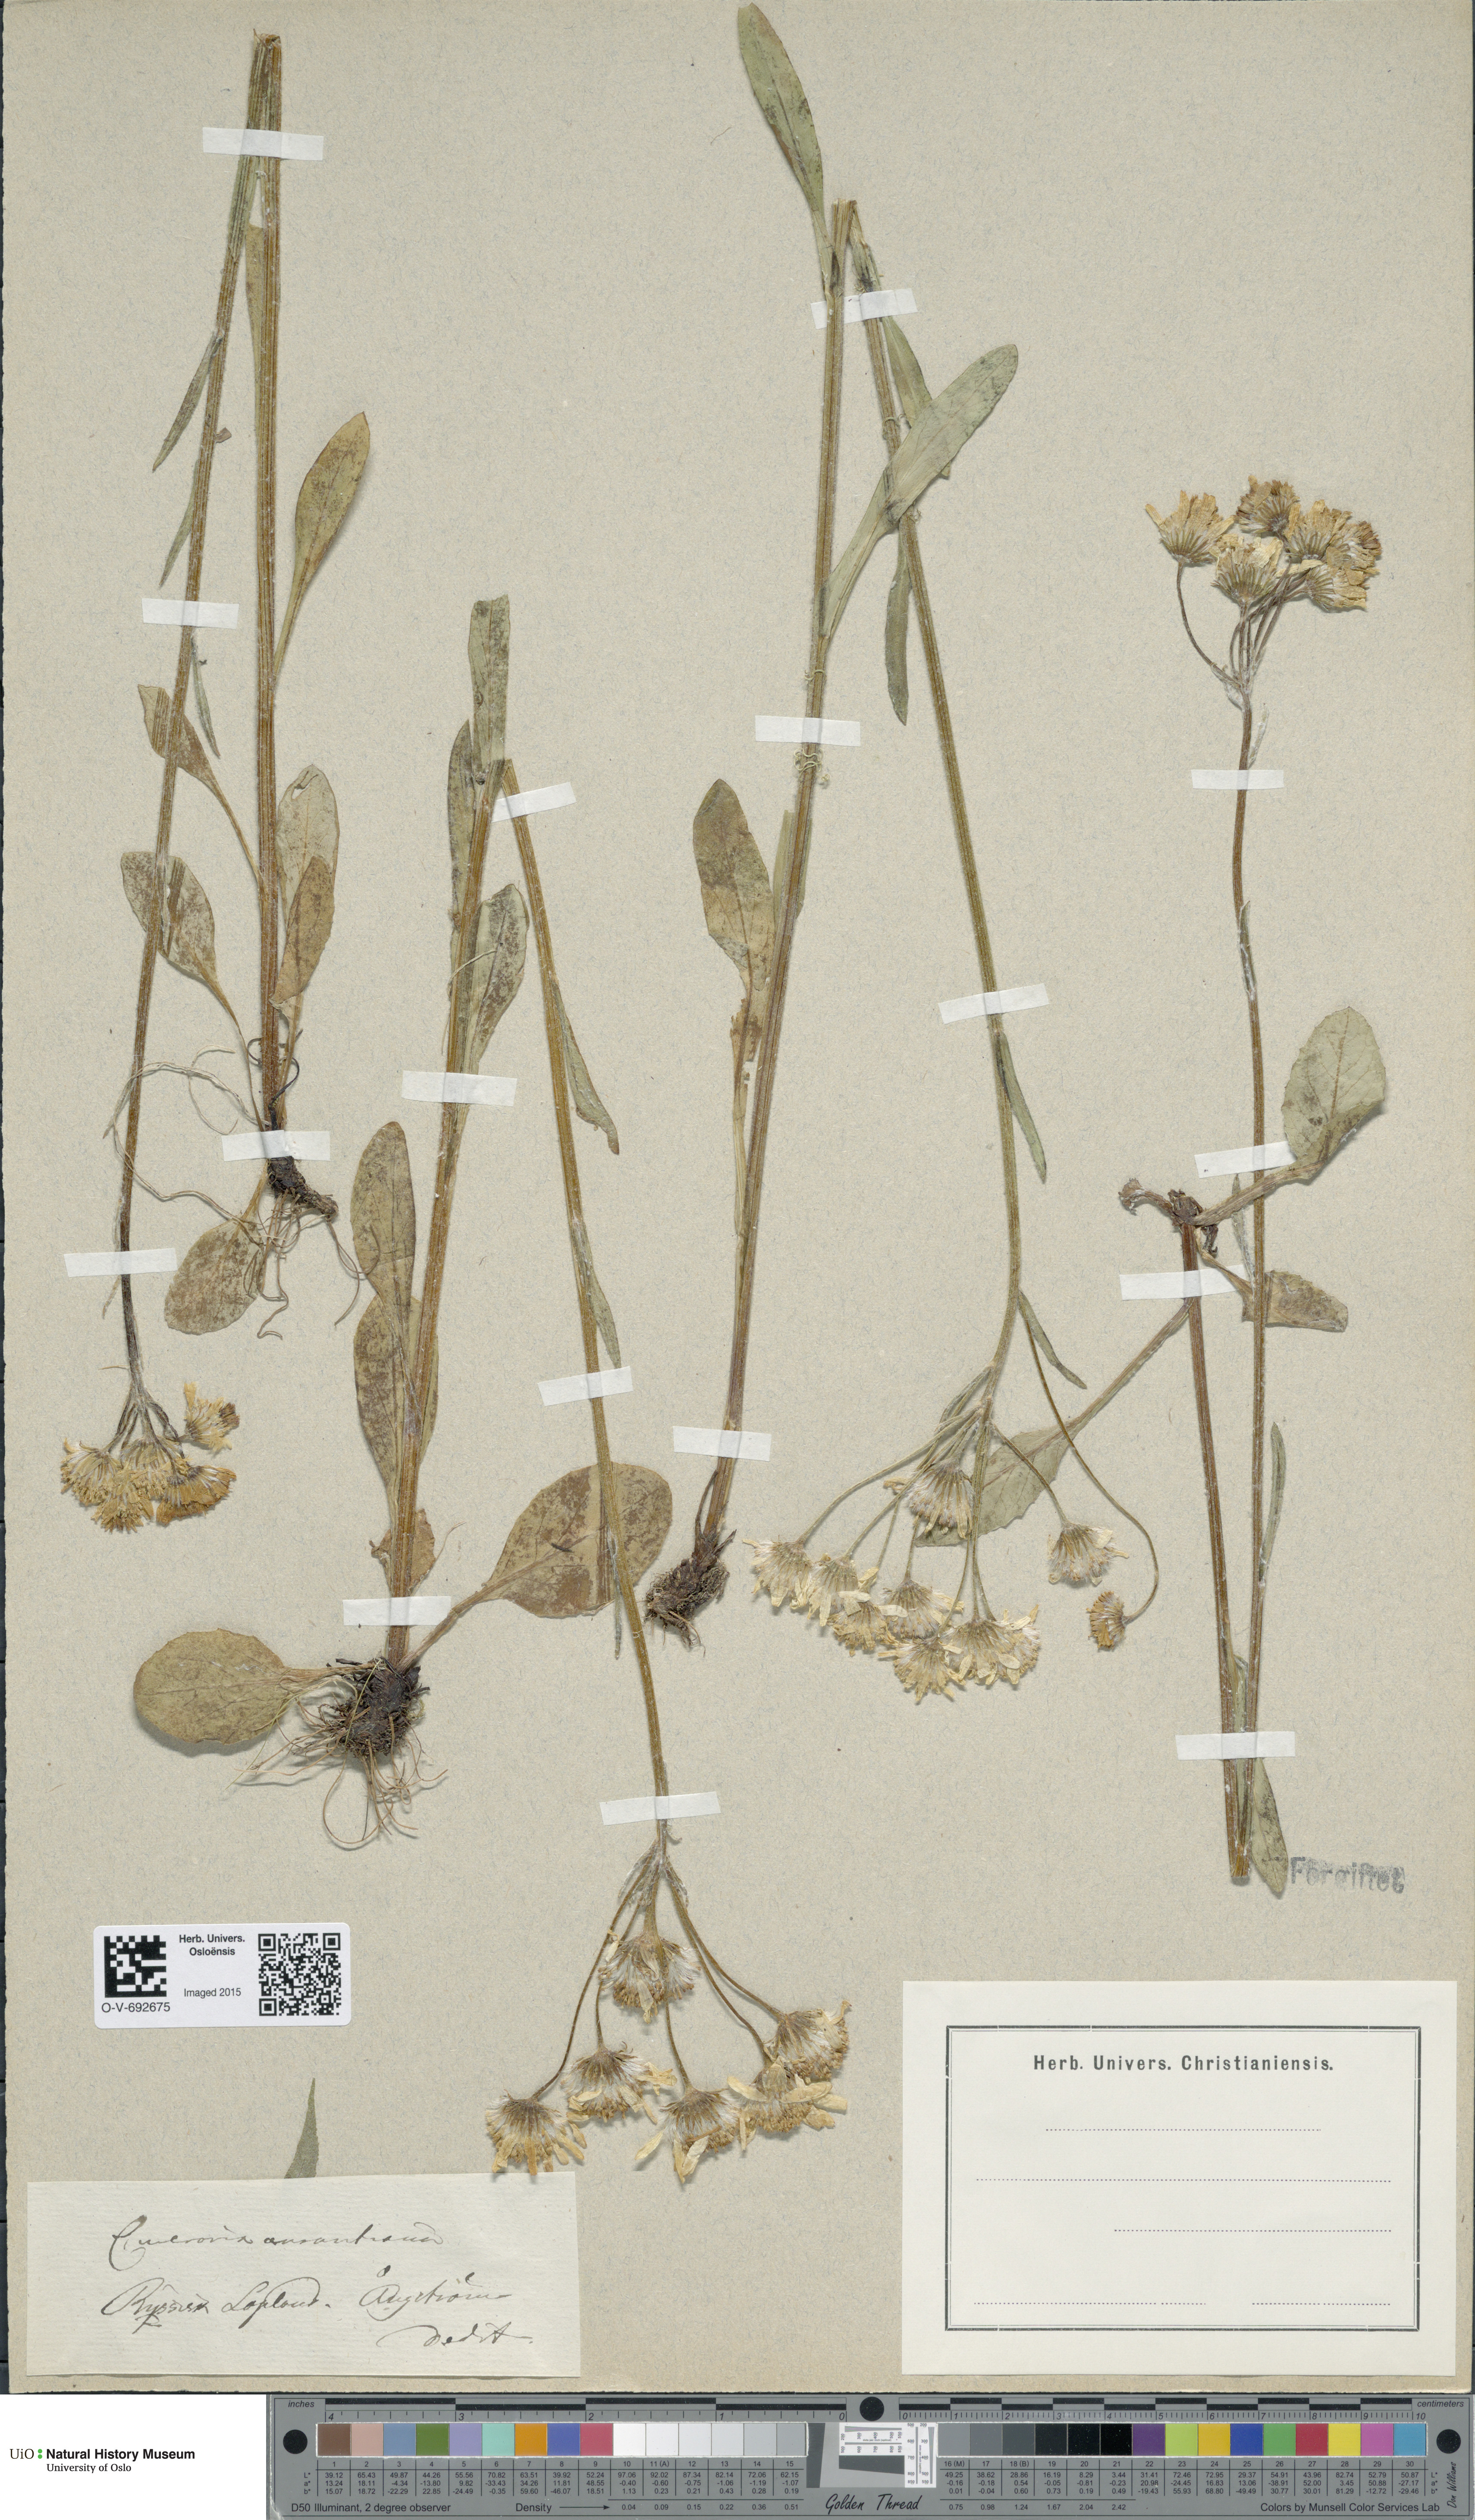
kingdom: Plantae
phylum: Tracheophyta
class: Magnoliopsida
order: Asterales
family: Asteraceae
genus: Tephroseris
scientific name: Tephroseris integrifolia
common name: Field fleawort
